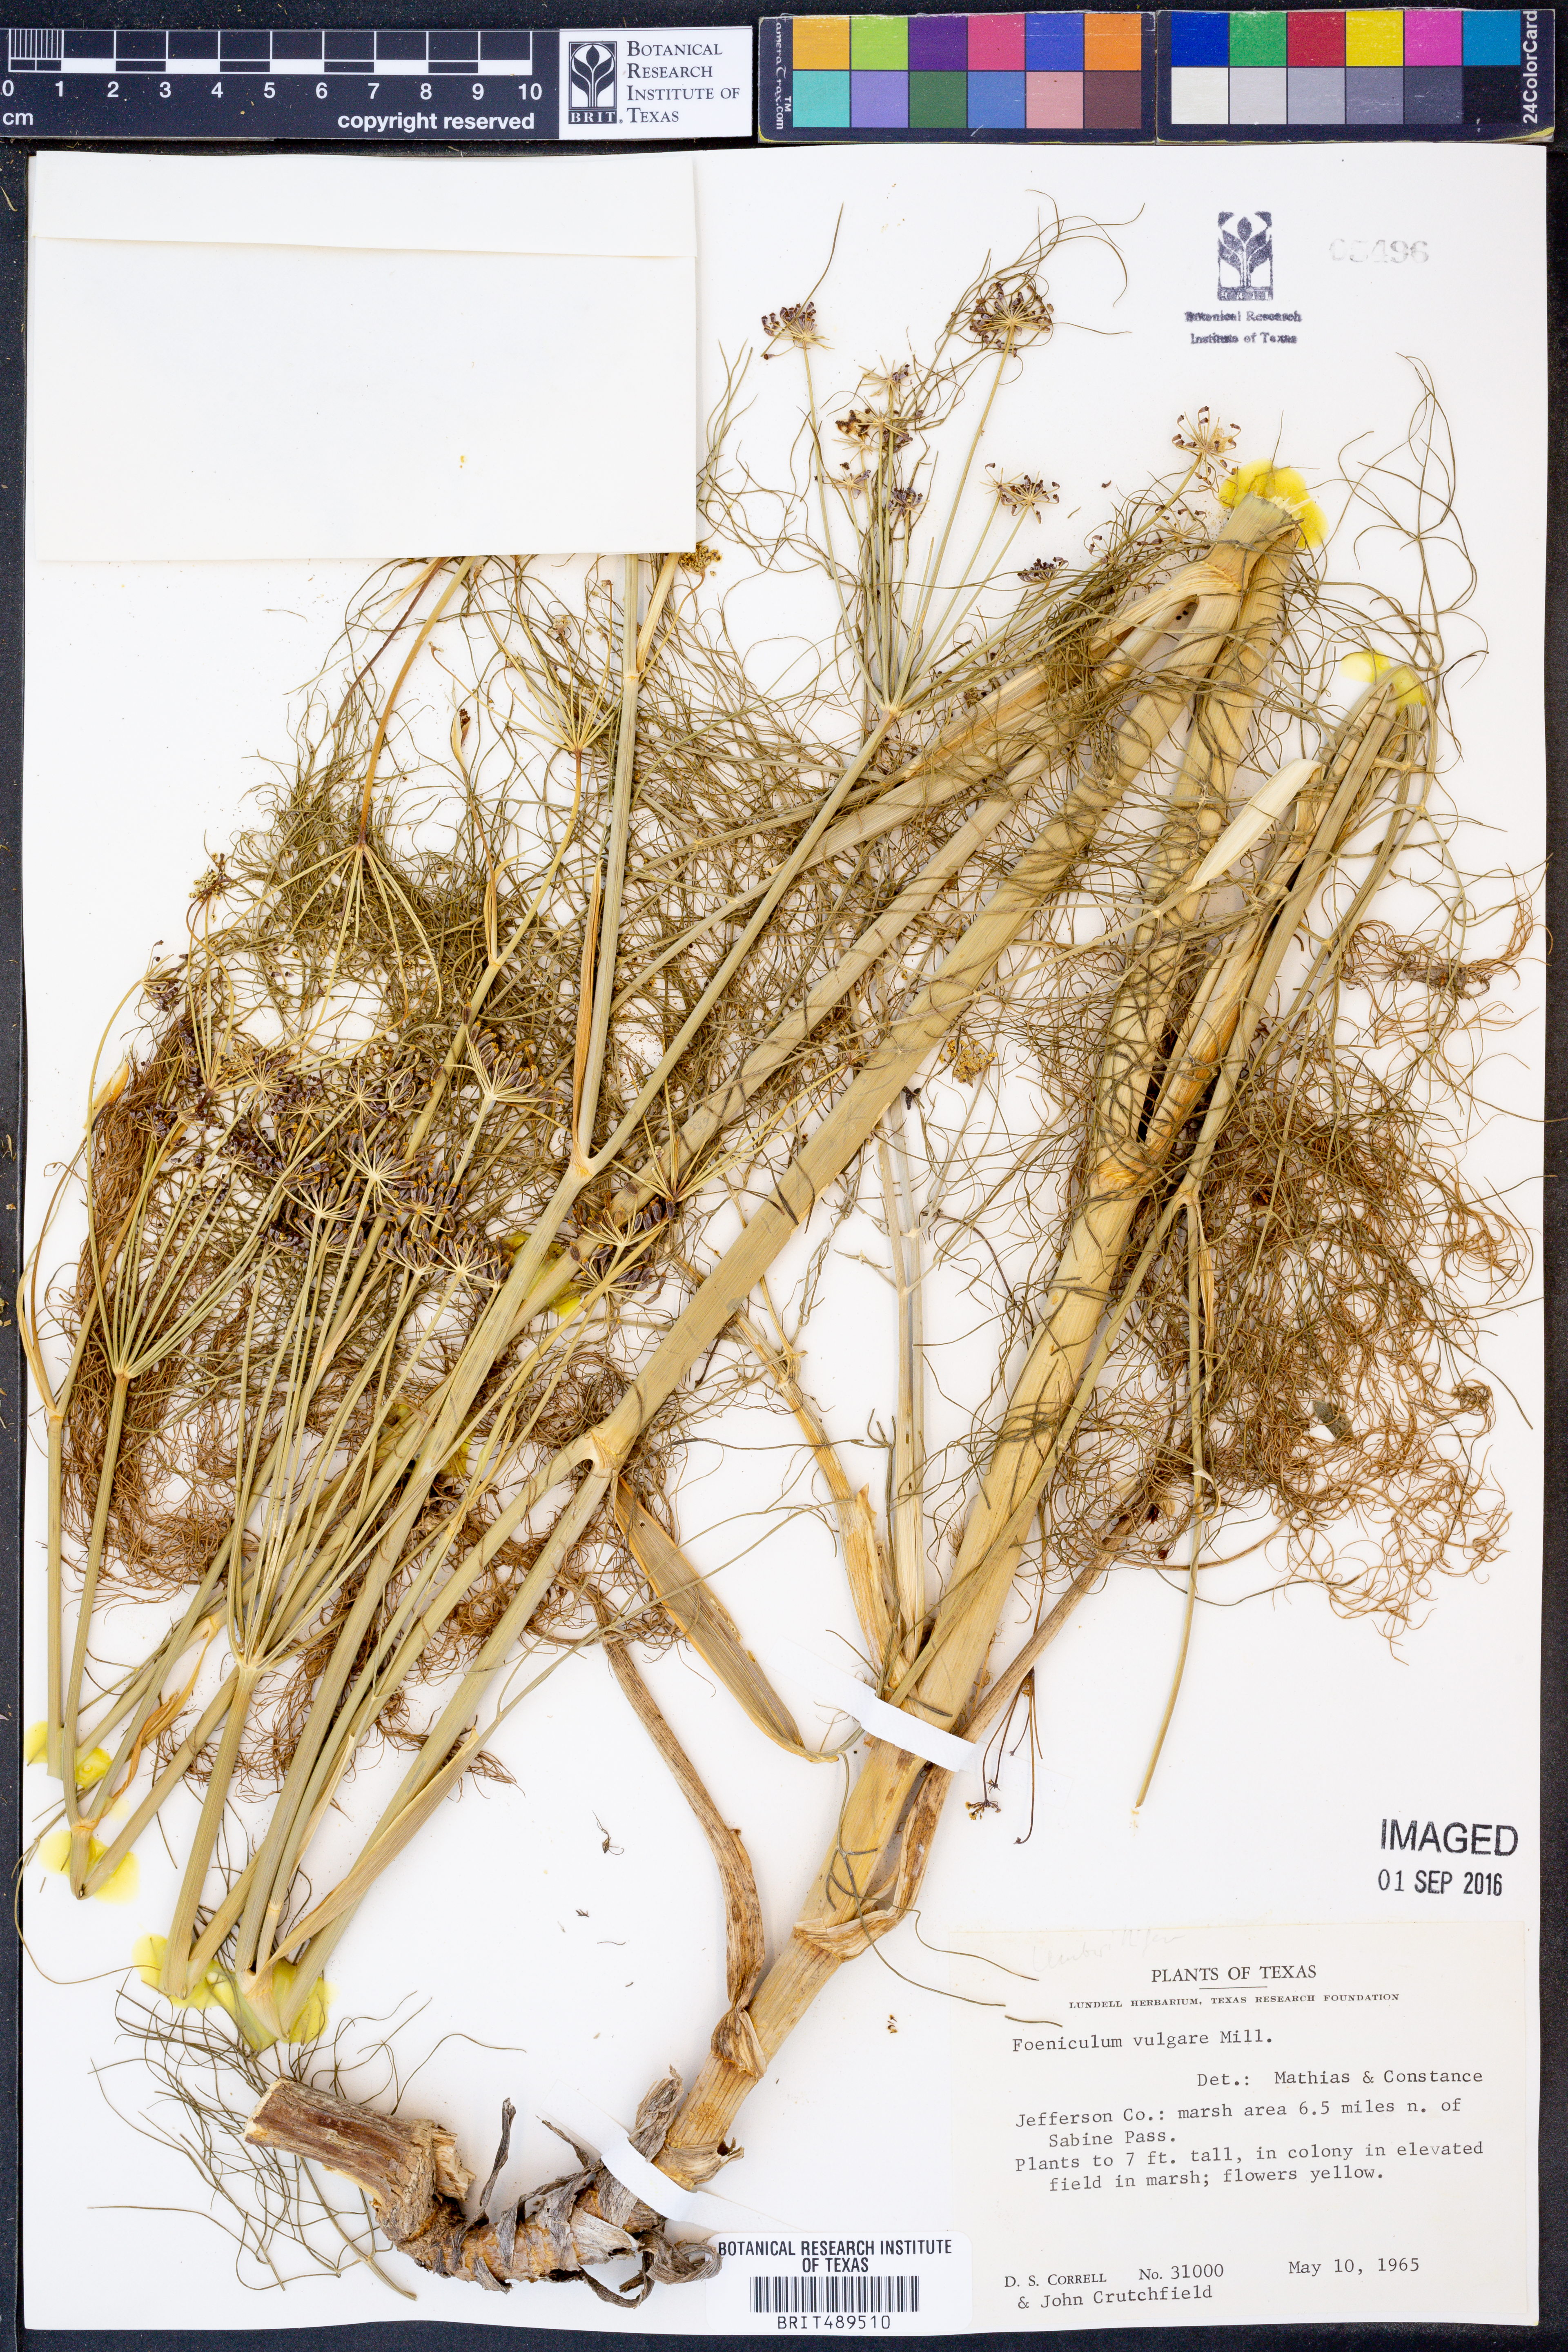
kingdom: Plantae
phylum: Tracheophyta
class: Magnoliopsida
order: Apiales
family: Apiaceae
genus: Foeniculum
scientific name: Foeniculum vulgare
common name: Fennel
